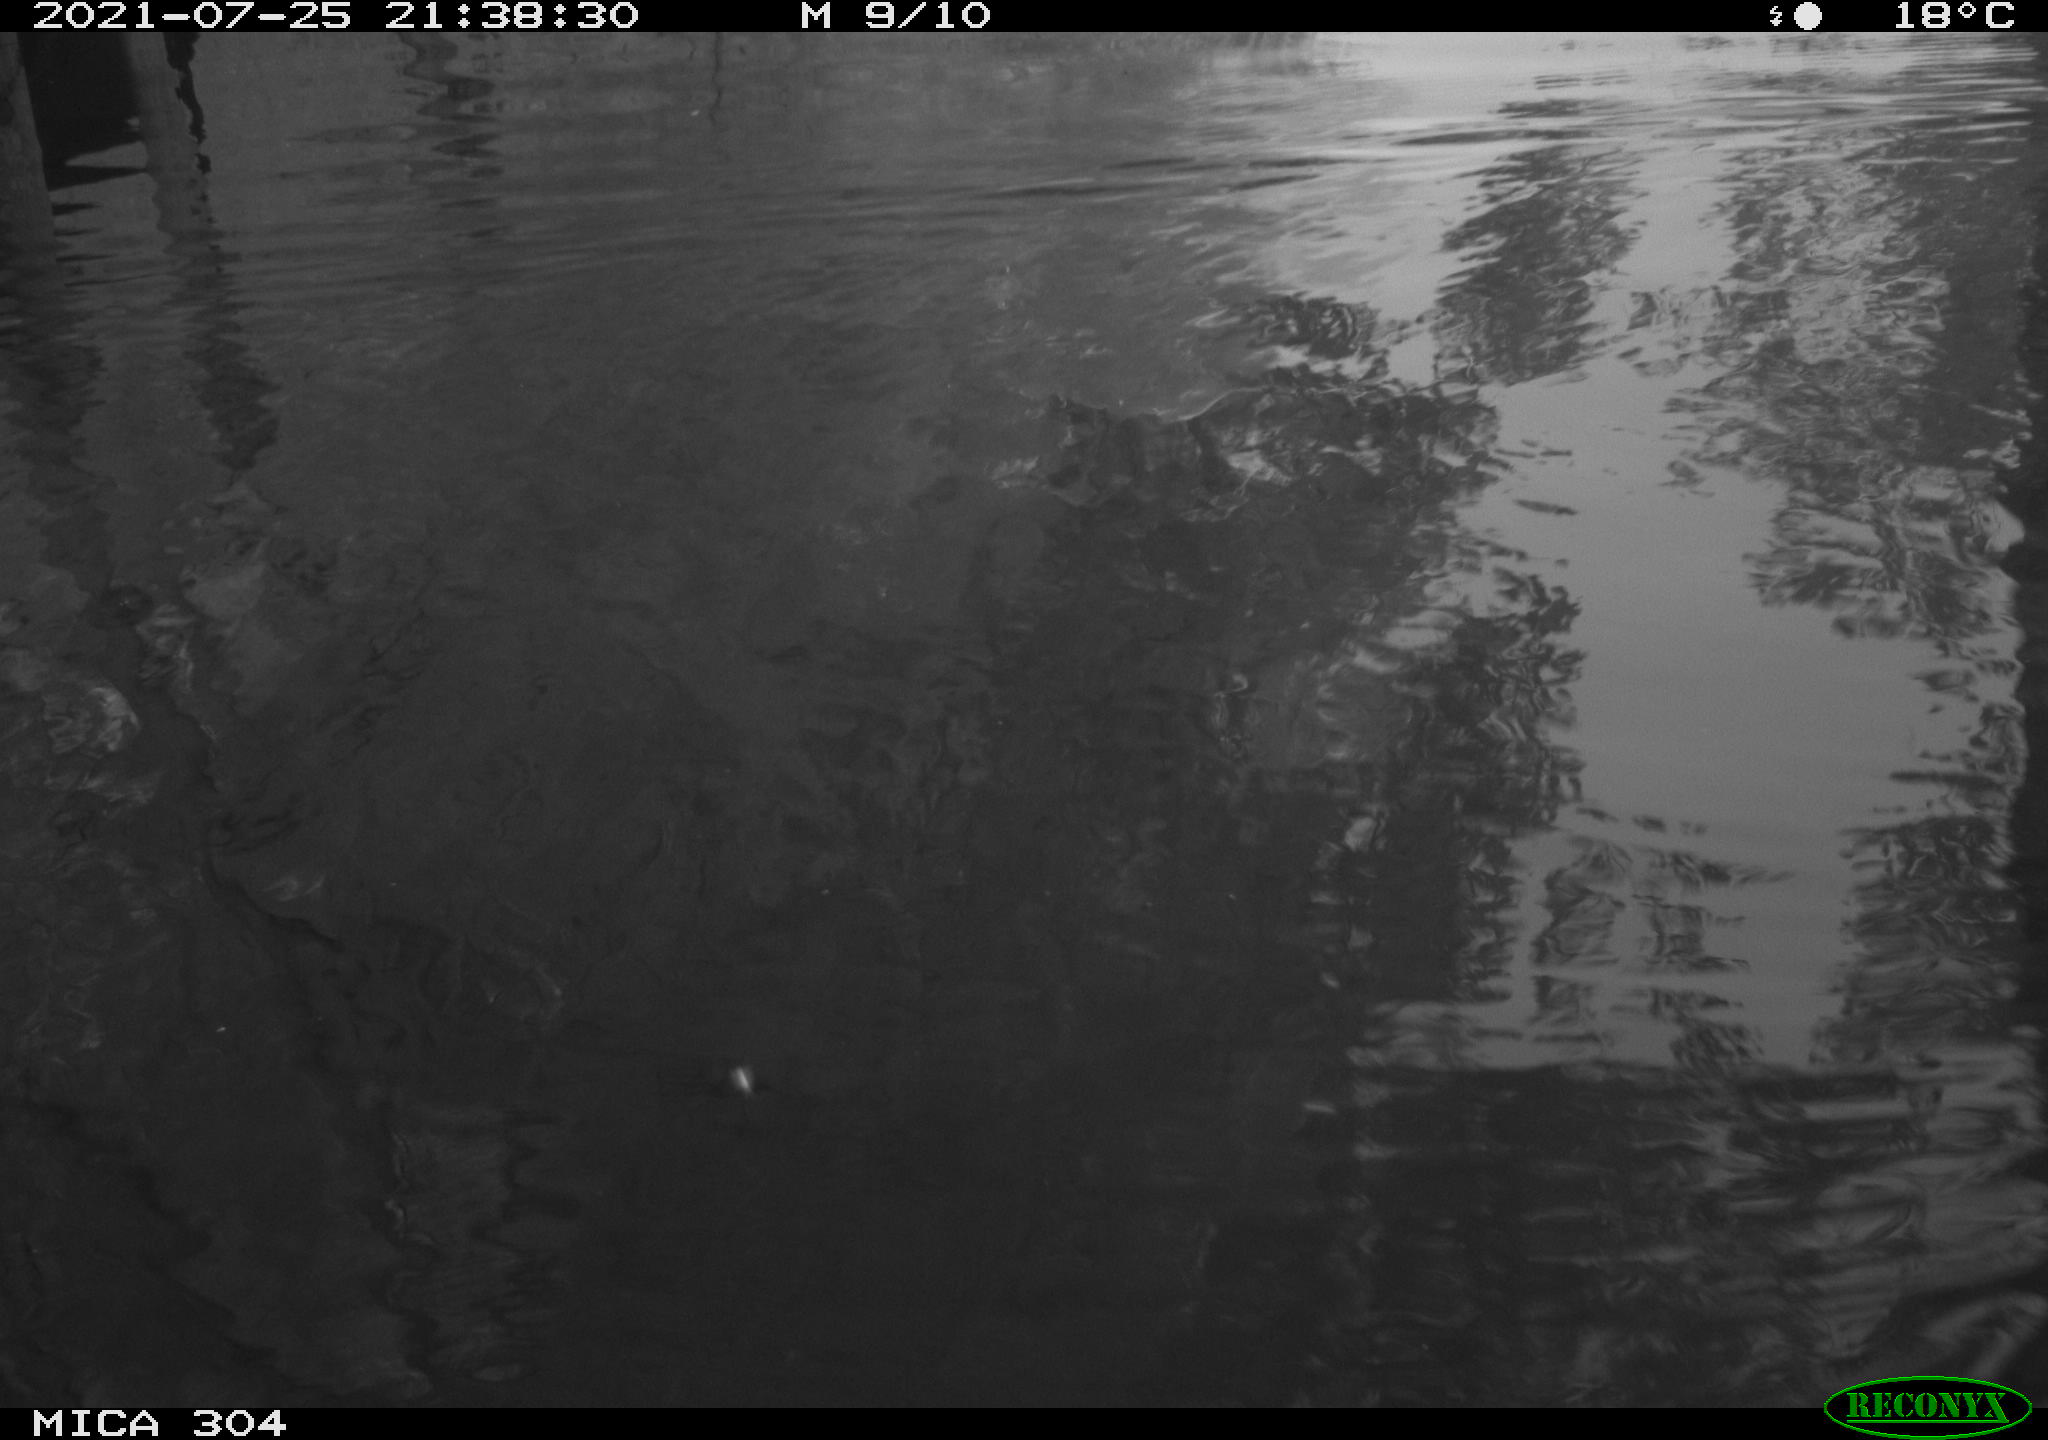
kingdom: Animalia
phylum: Chordata
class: Mammalia
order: Rodentia
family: Muridae
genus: Rattus
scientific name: Rattus norvegicus
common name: Brown rat
